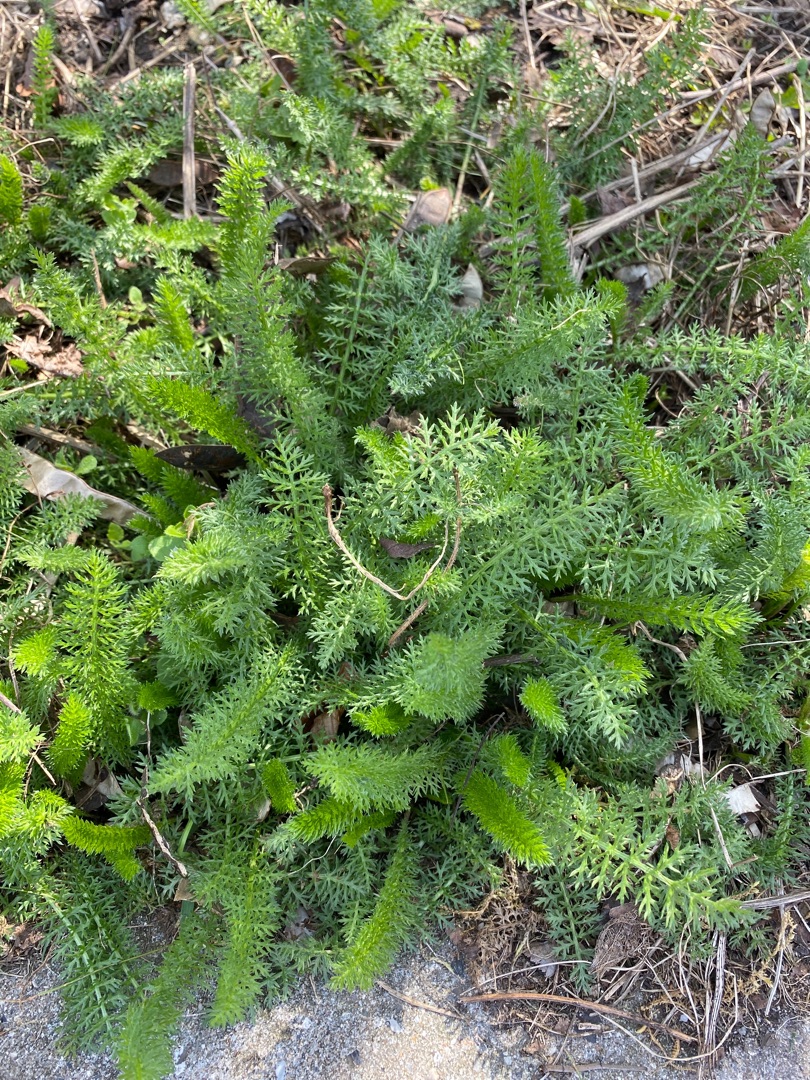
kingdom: Plantae
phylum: Tracheophyta
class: Magnoliopsida
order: Asterales
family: Asteraceae
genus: Achillea
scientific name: Achillea millefolium
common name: Almindelig røllike
